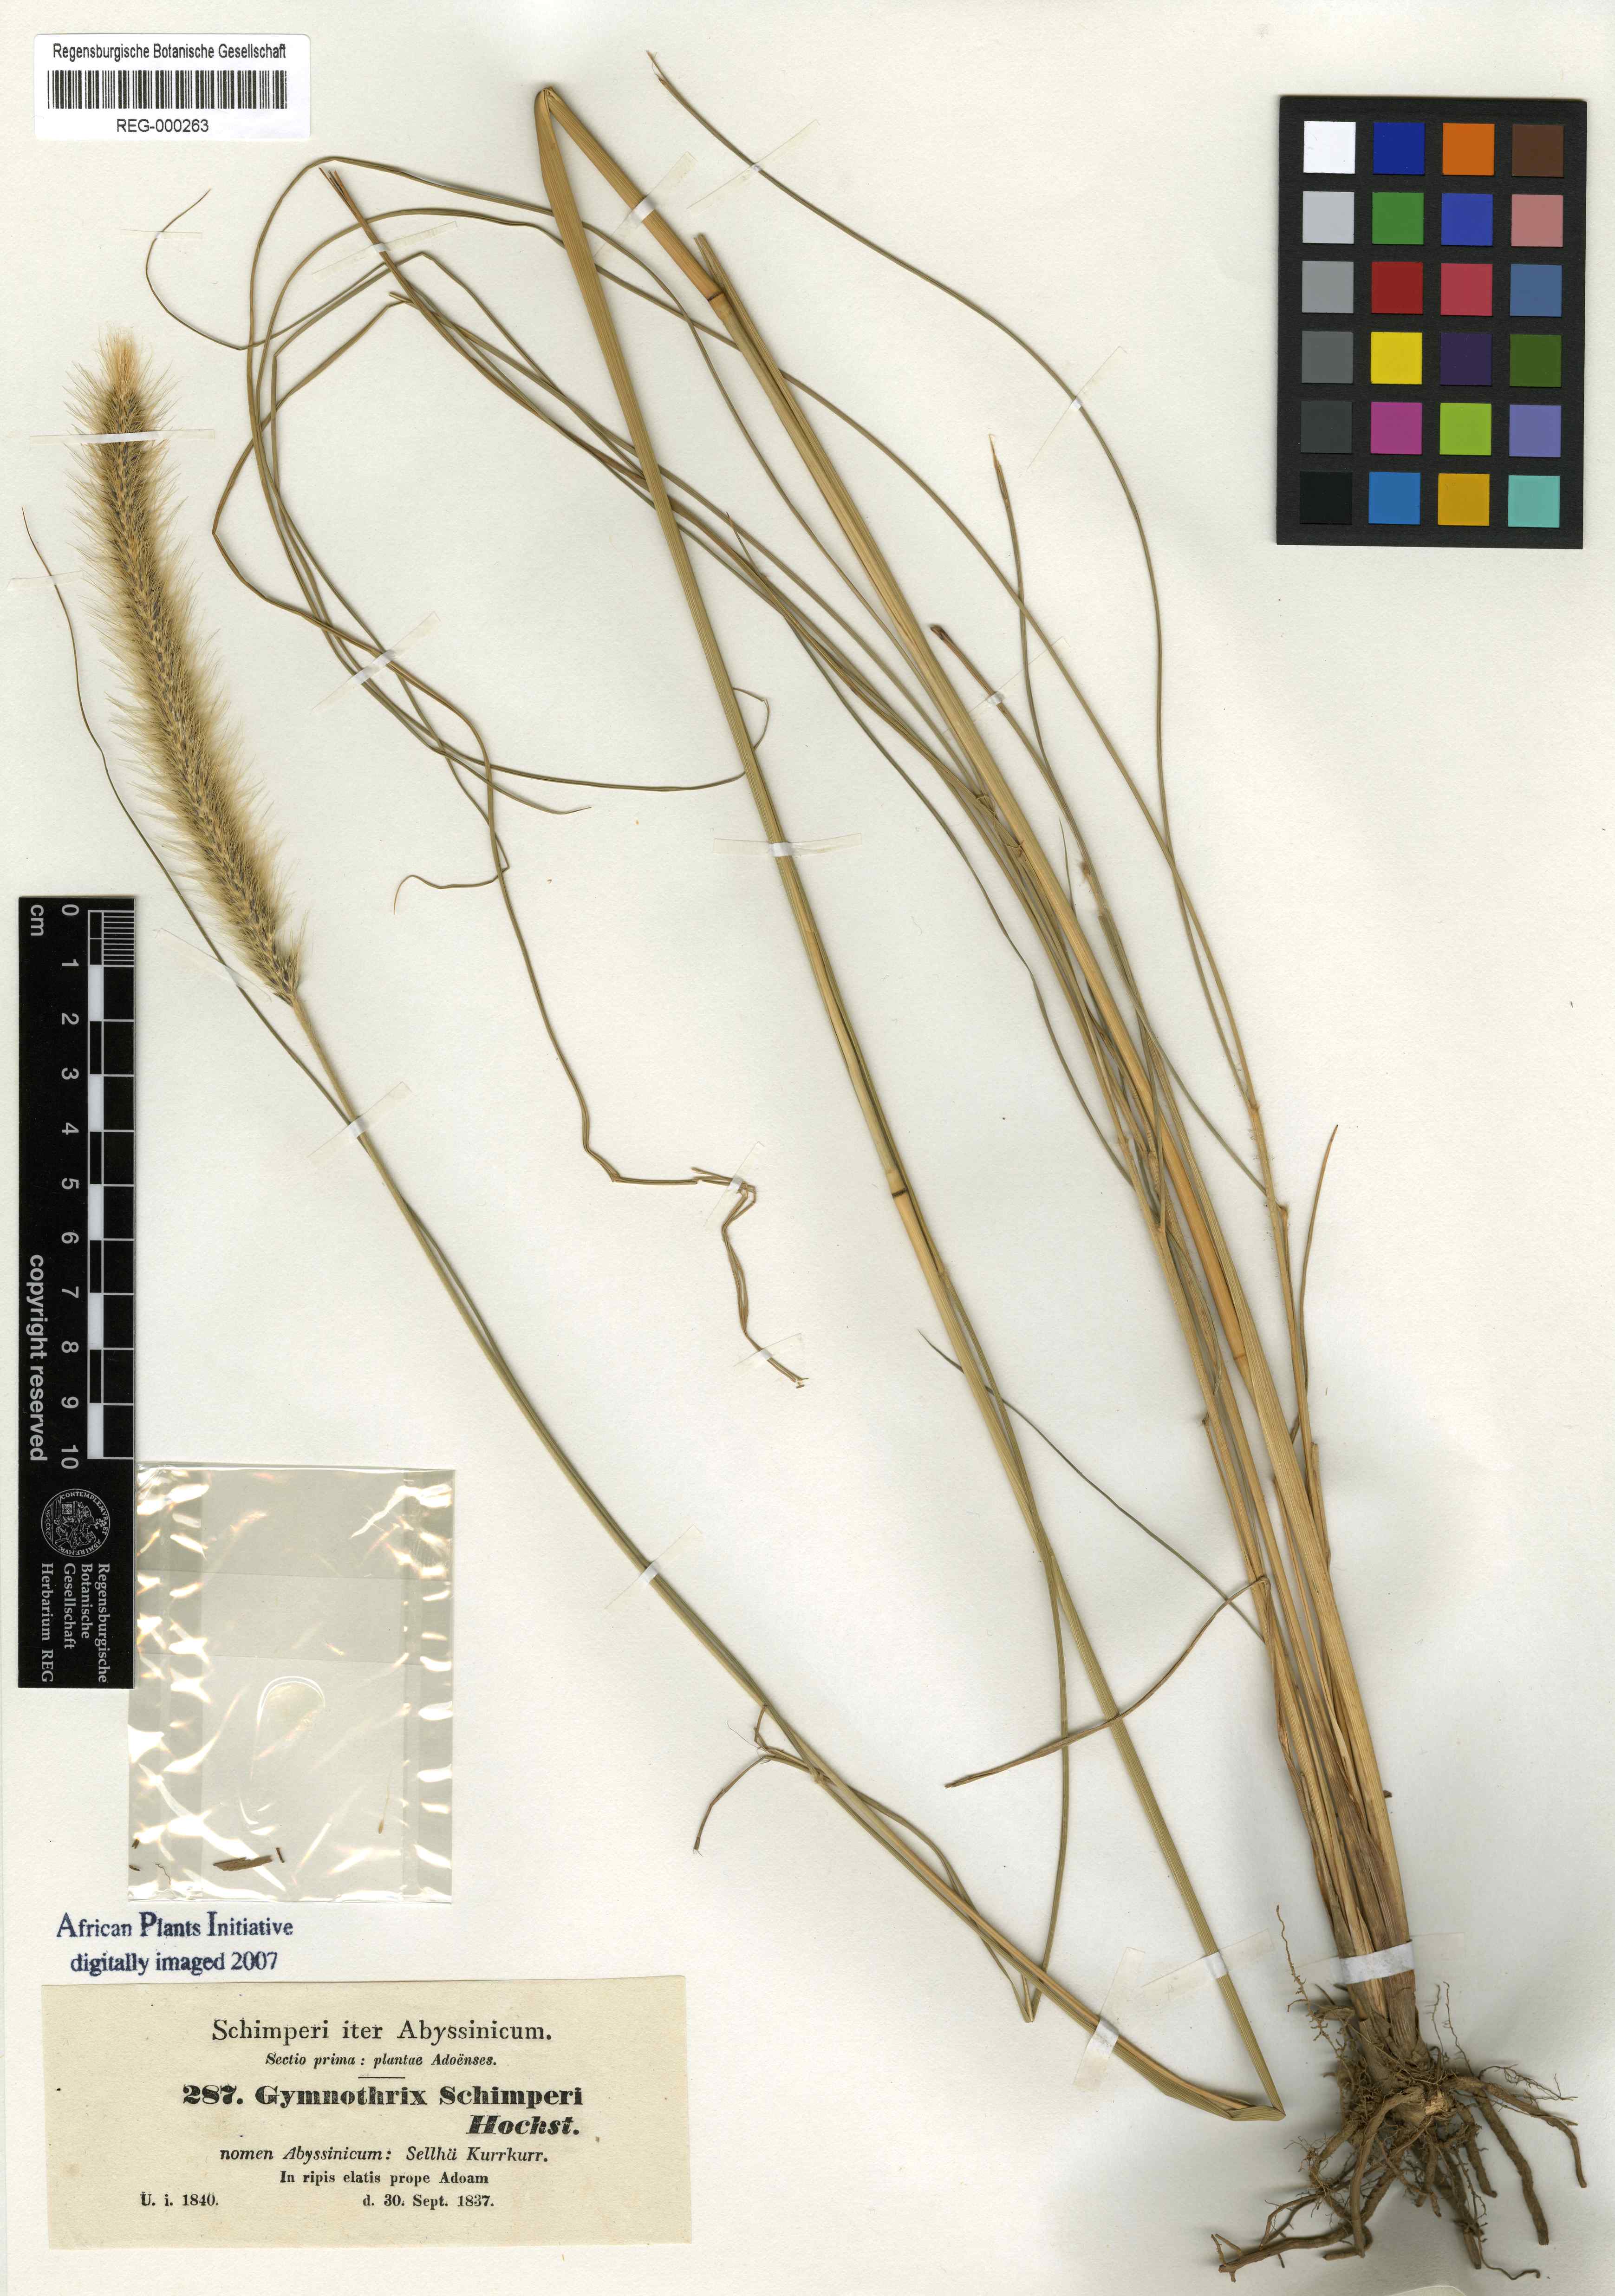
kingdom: Plantae
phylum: Tracheophyta
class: Liliopsida
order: Poales
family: Poaceae
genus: Cenchrus
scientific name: Cenchrus sphacelatus
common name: Bulgras
